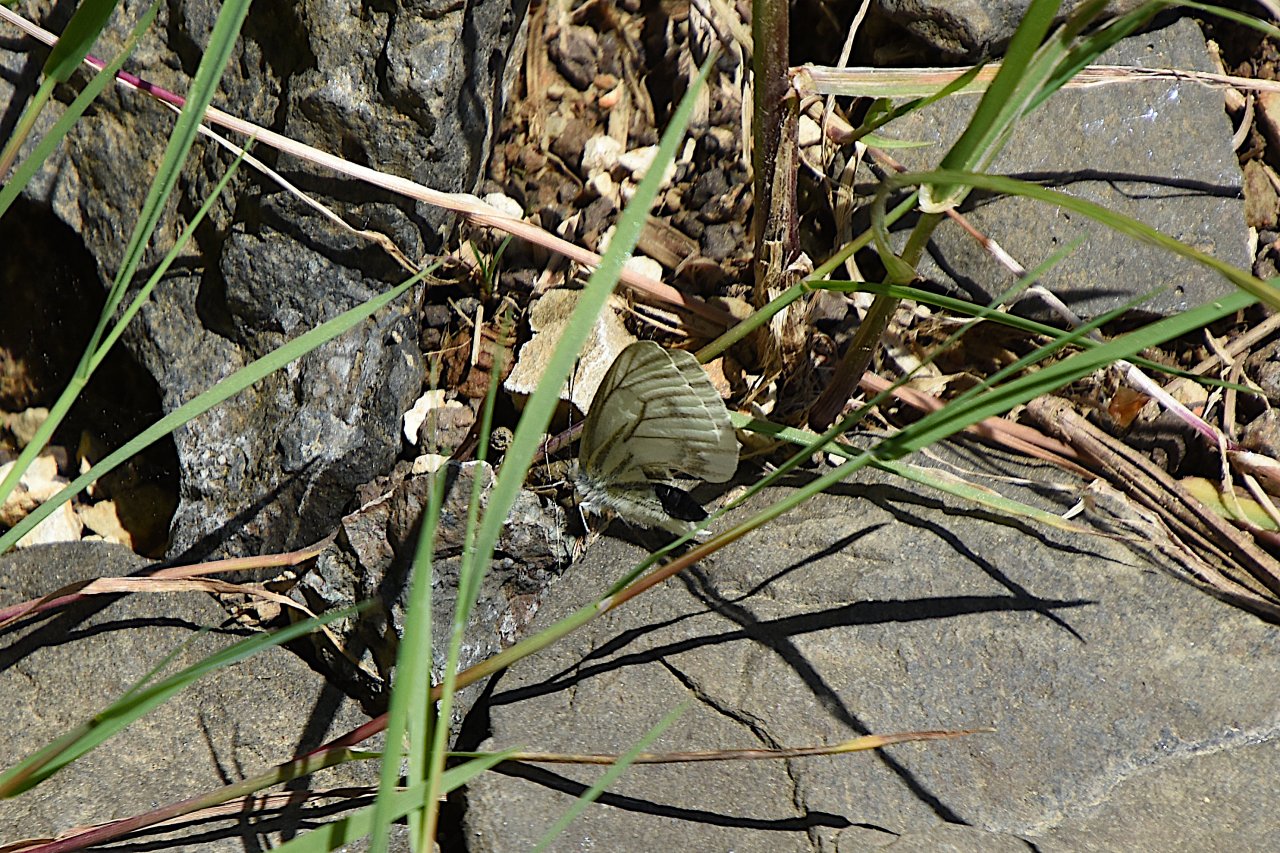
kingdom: Animalia
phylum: Arthropoda
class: Insecta
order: Lepidoptera
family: Pieridae
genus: Pieris
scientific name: Pieris marginalis
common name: Margined White
